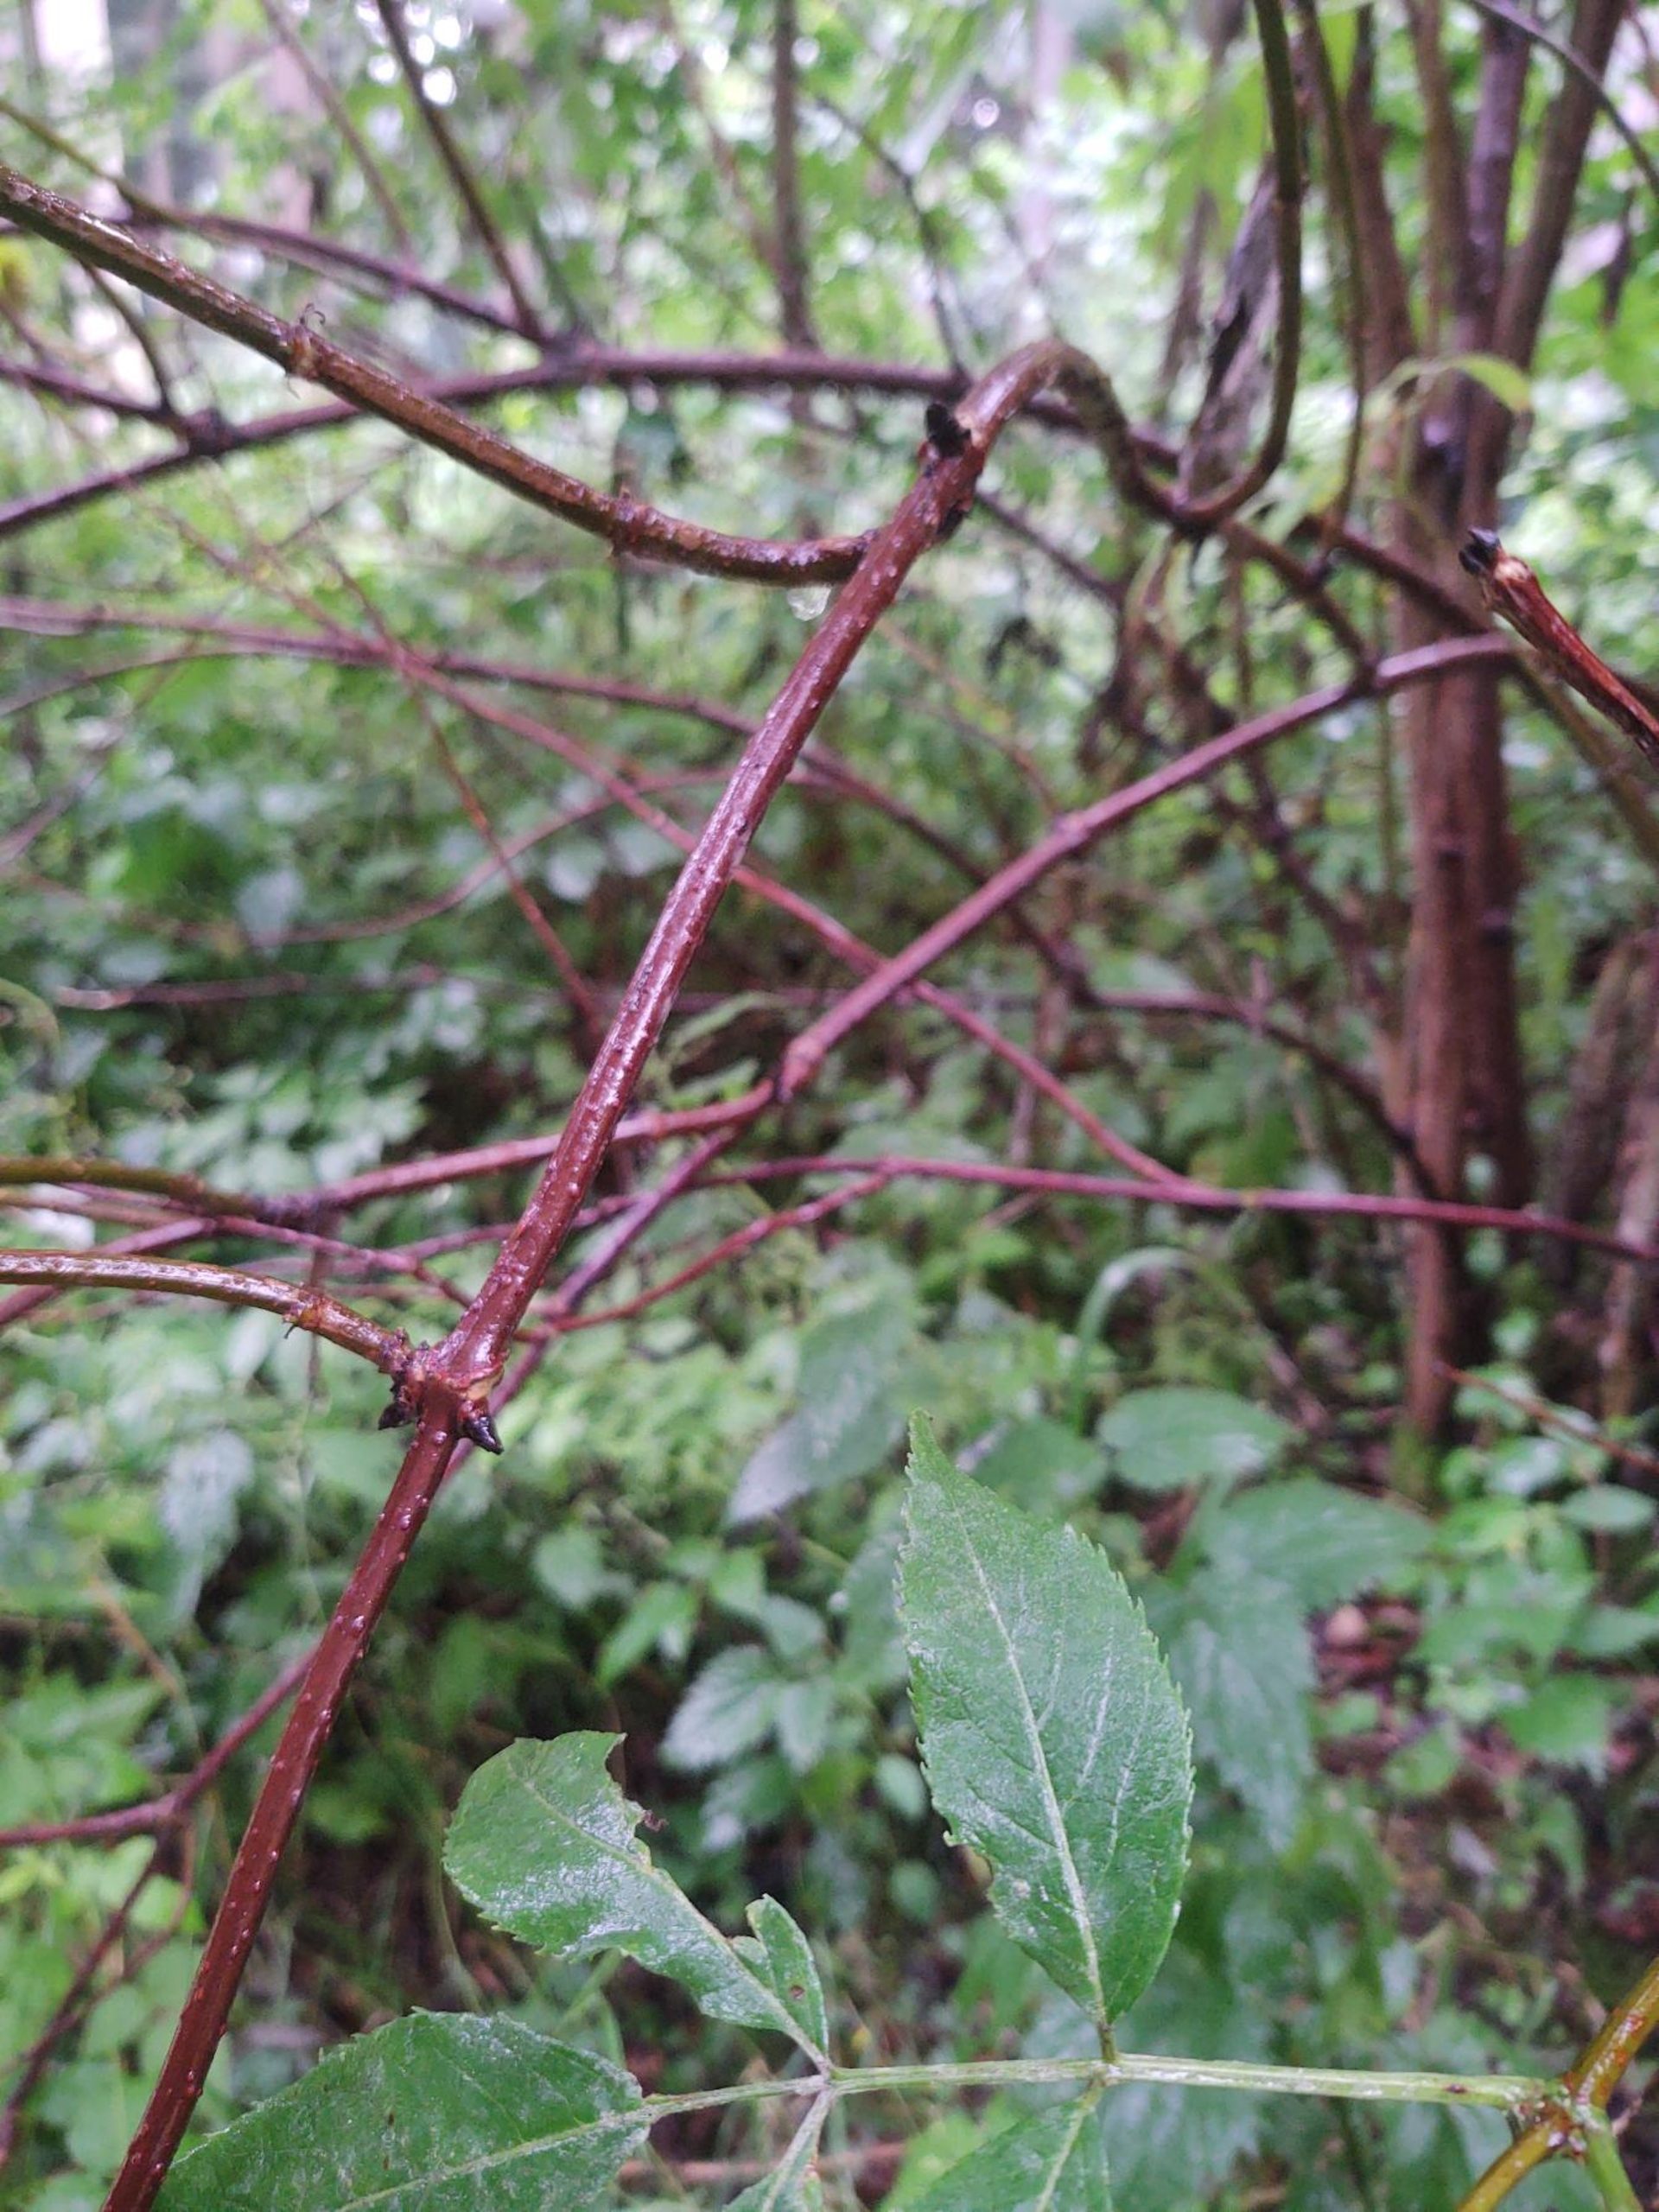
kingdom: Plantae
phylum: Tracheophyta
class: Magnoliopsida
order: Dipsacales
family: Viburnaceae
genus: Sambucus
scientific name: Sambucus racemosa
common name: Drue-hyld
